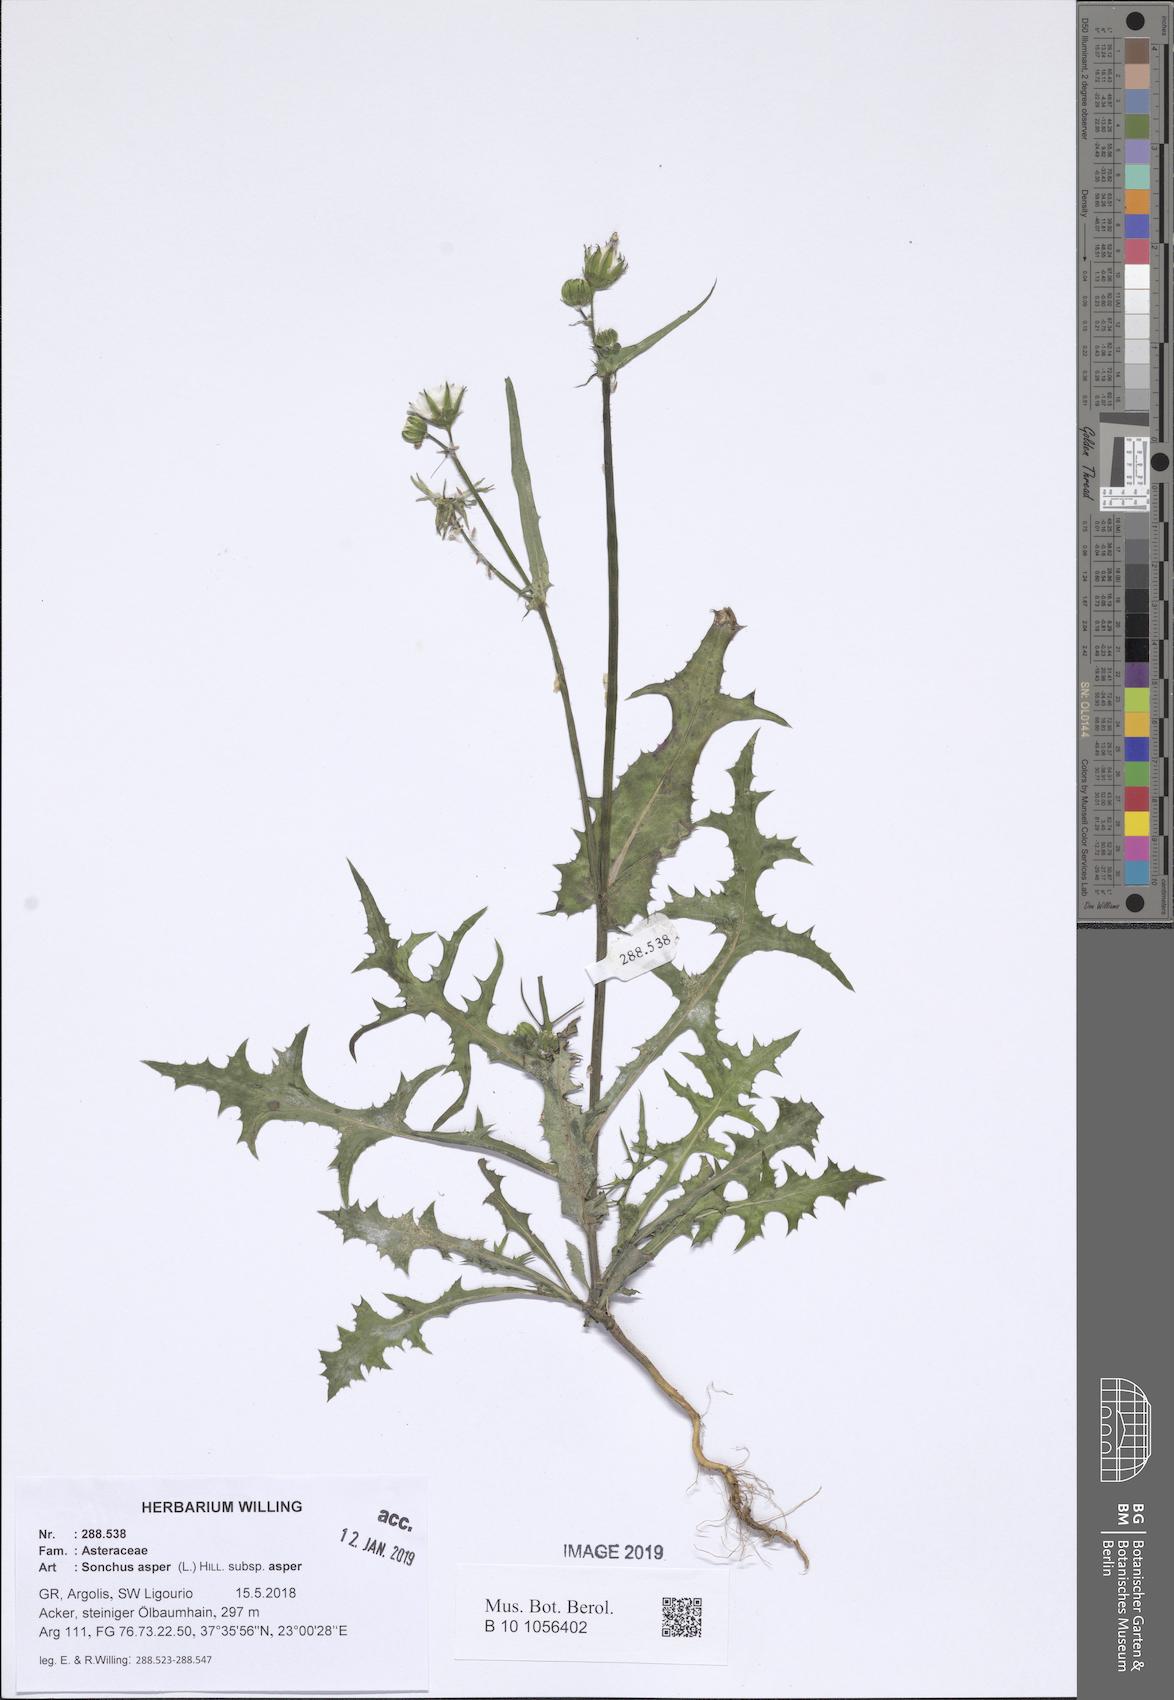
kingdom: Plantae
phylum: Tracheophyta
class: Magnoliopsida
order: Asterales
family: Asteraceae
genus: Sonchus
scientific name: Sonchus asper
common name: Prickly sow-thistle
